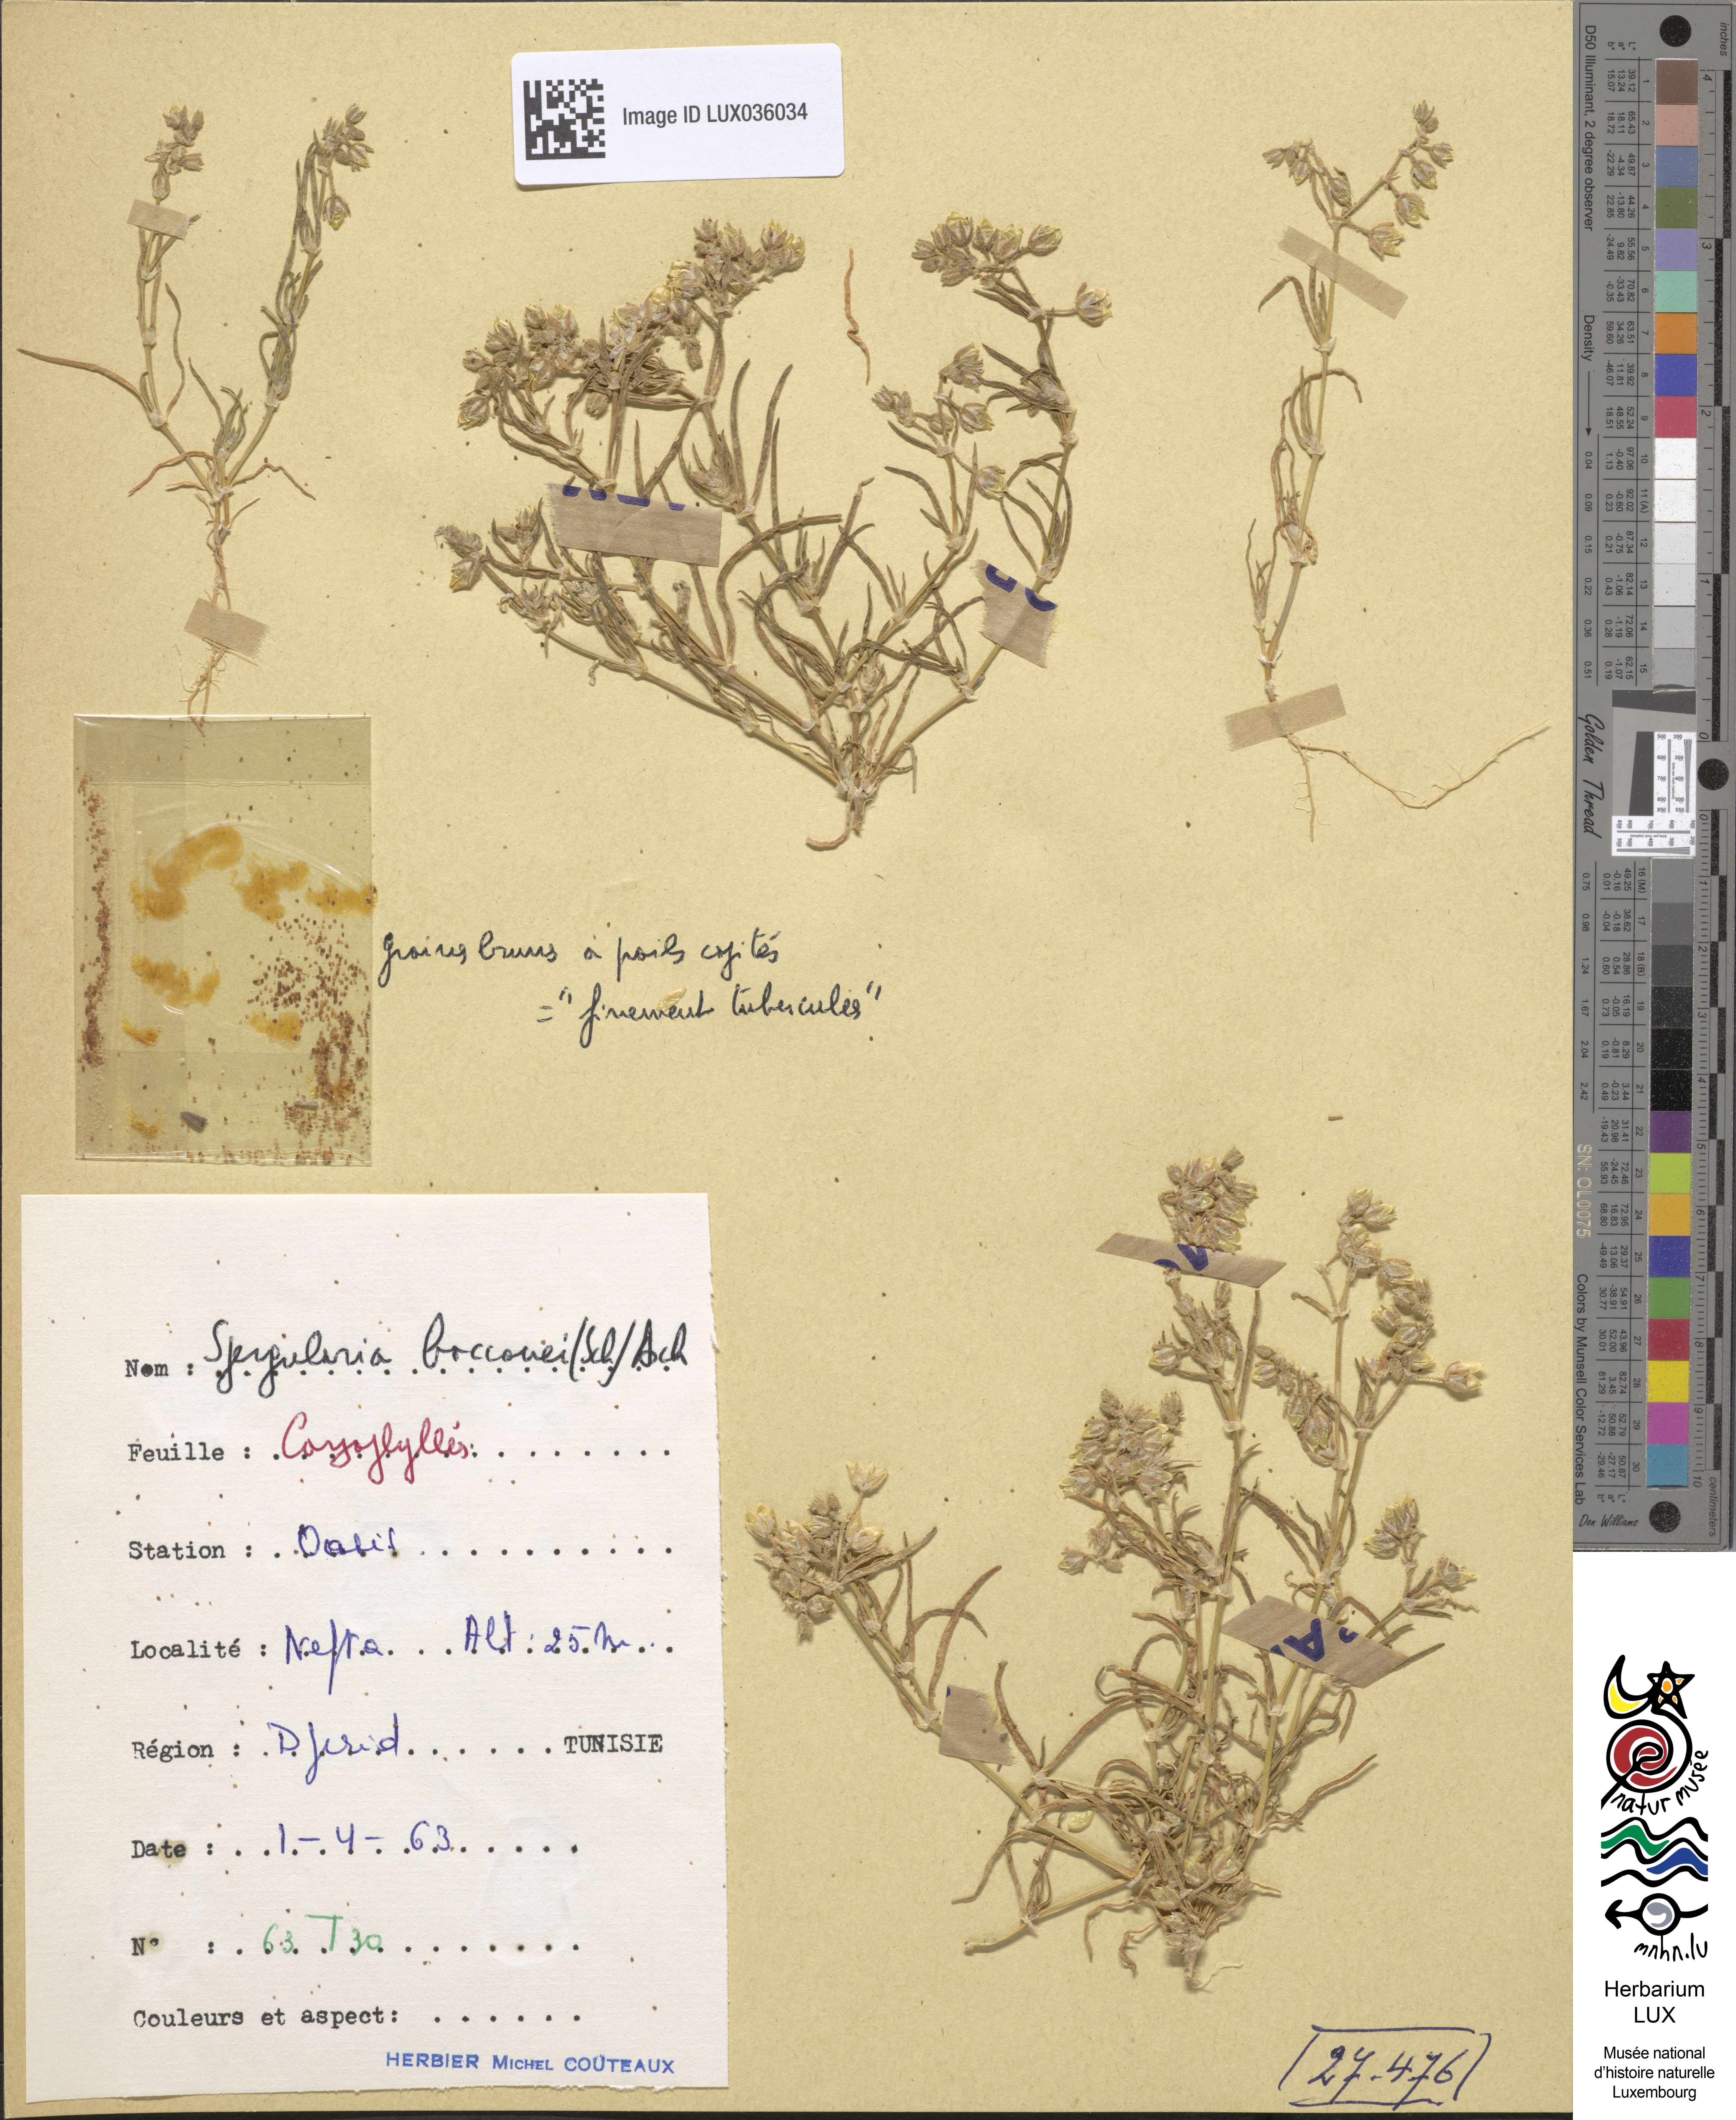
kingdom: Plantae
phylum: Tracheophyta
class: Magnoliopsida
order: Caryophyllales
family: Caryophyllaceae
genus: Spergularia
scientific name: Spergularia bocconei
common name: Greek sea-spurrey
